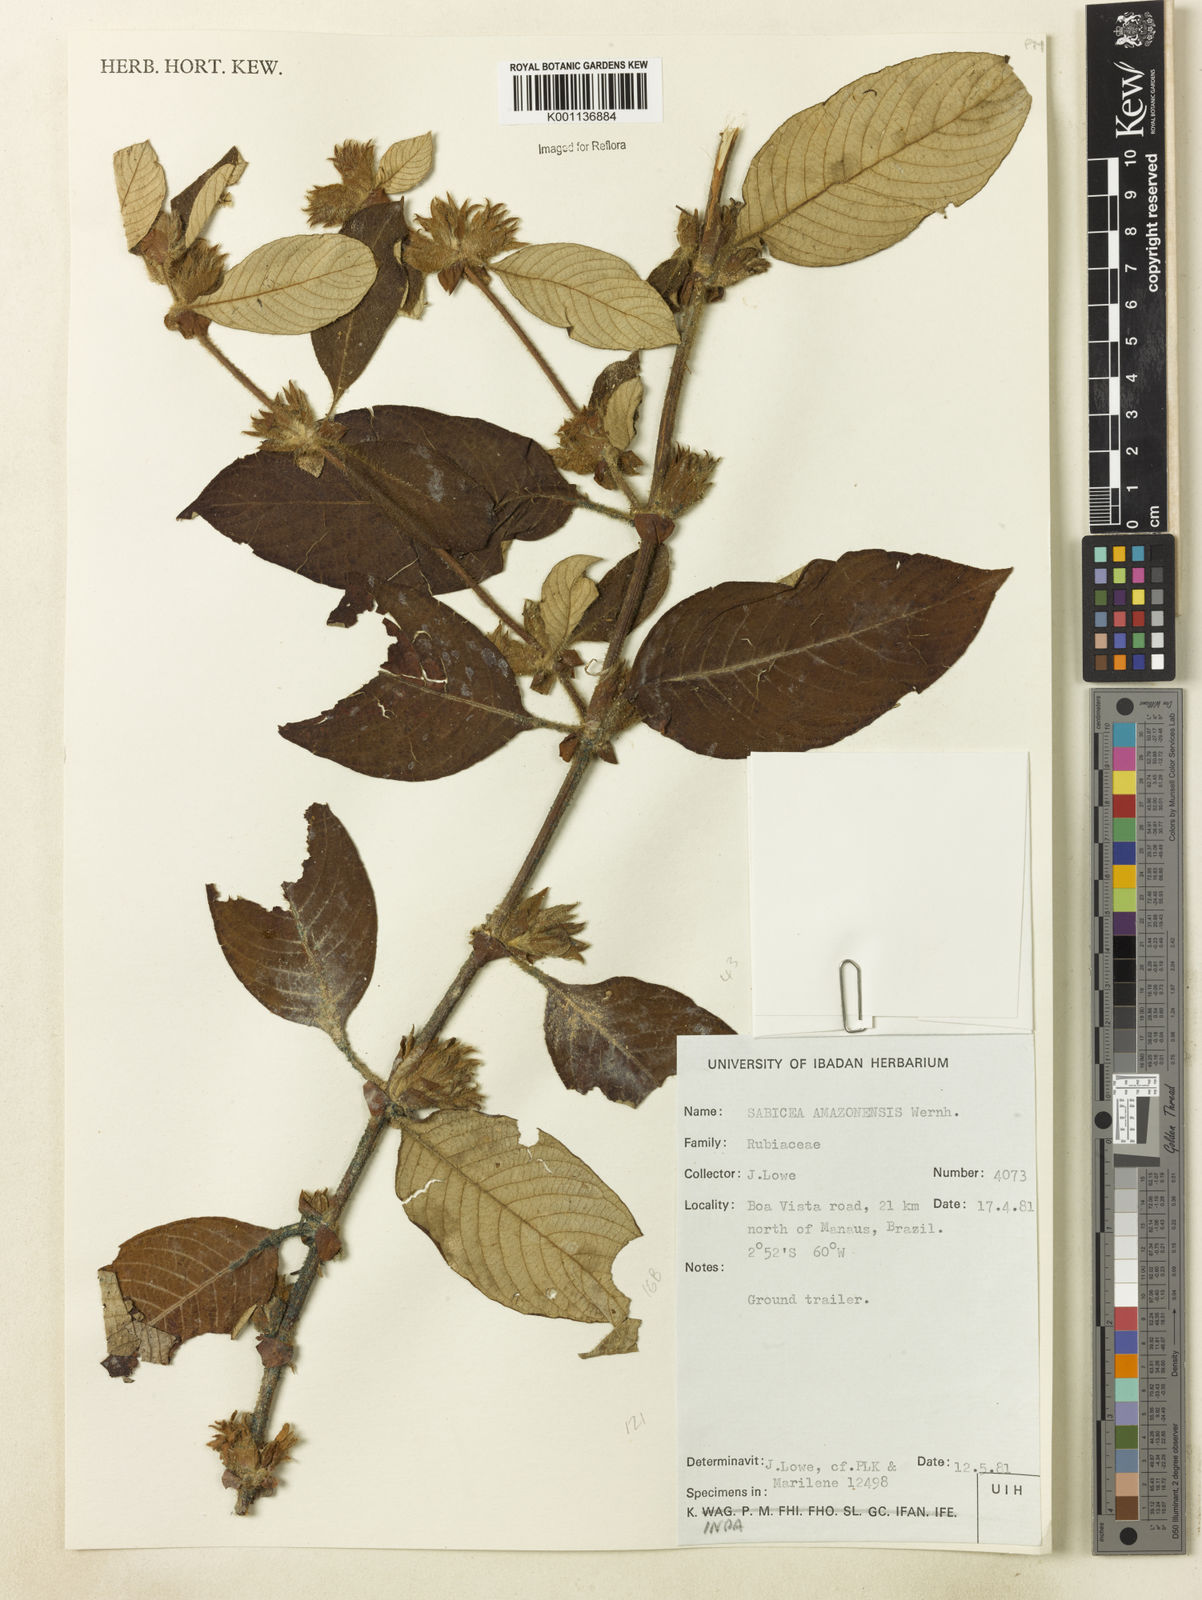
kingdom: Plantae
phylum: Tracheophyta
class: Magnoliopsida
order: Gentianales
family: Rubiaceae
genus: Sabicea
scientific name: Sabicea amazonensis
